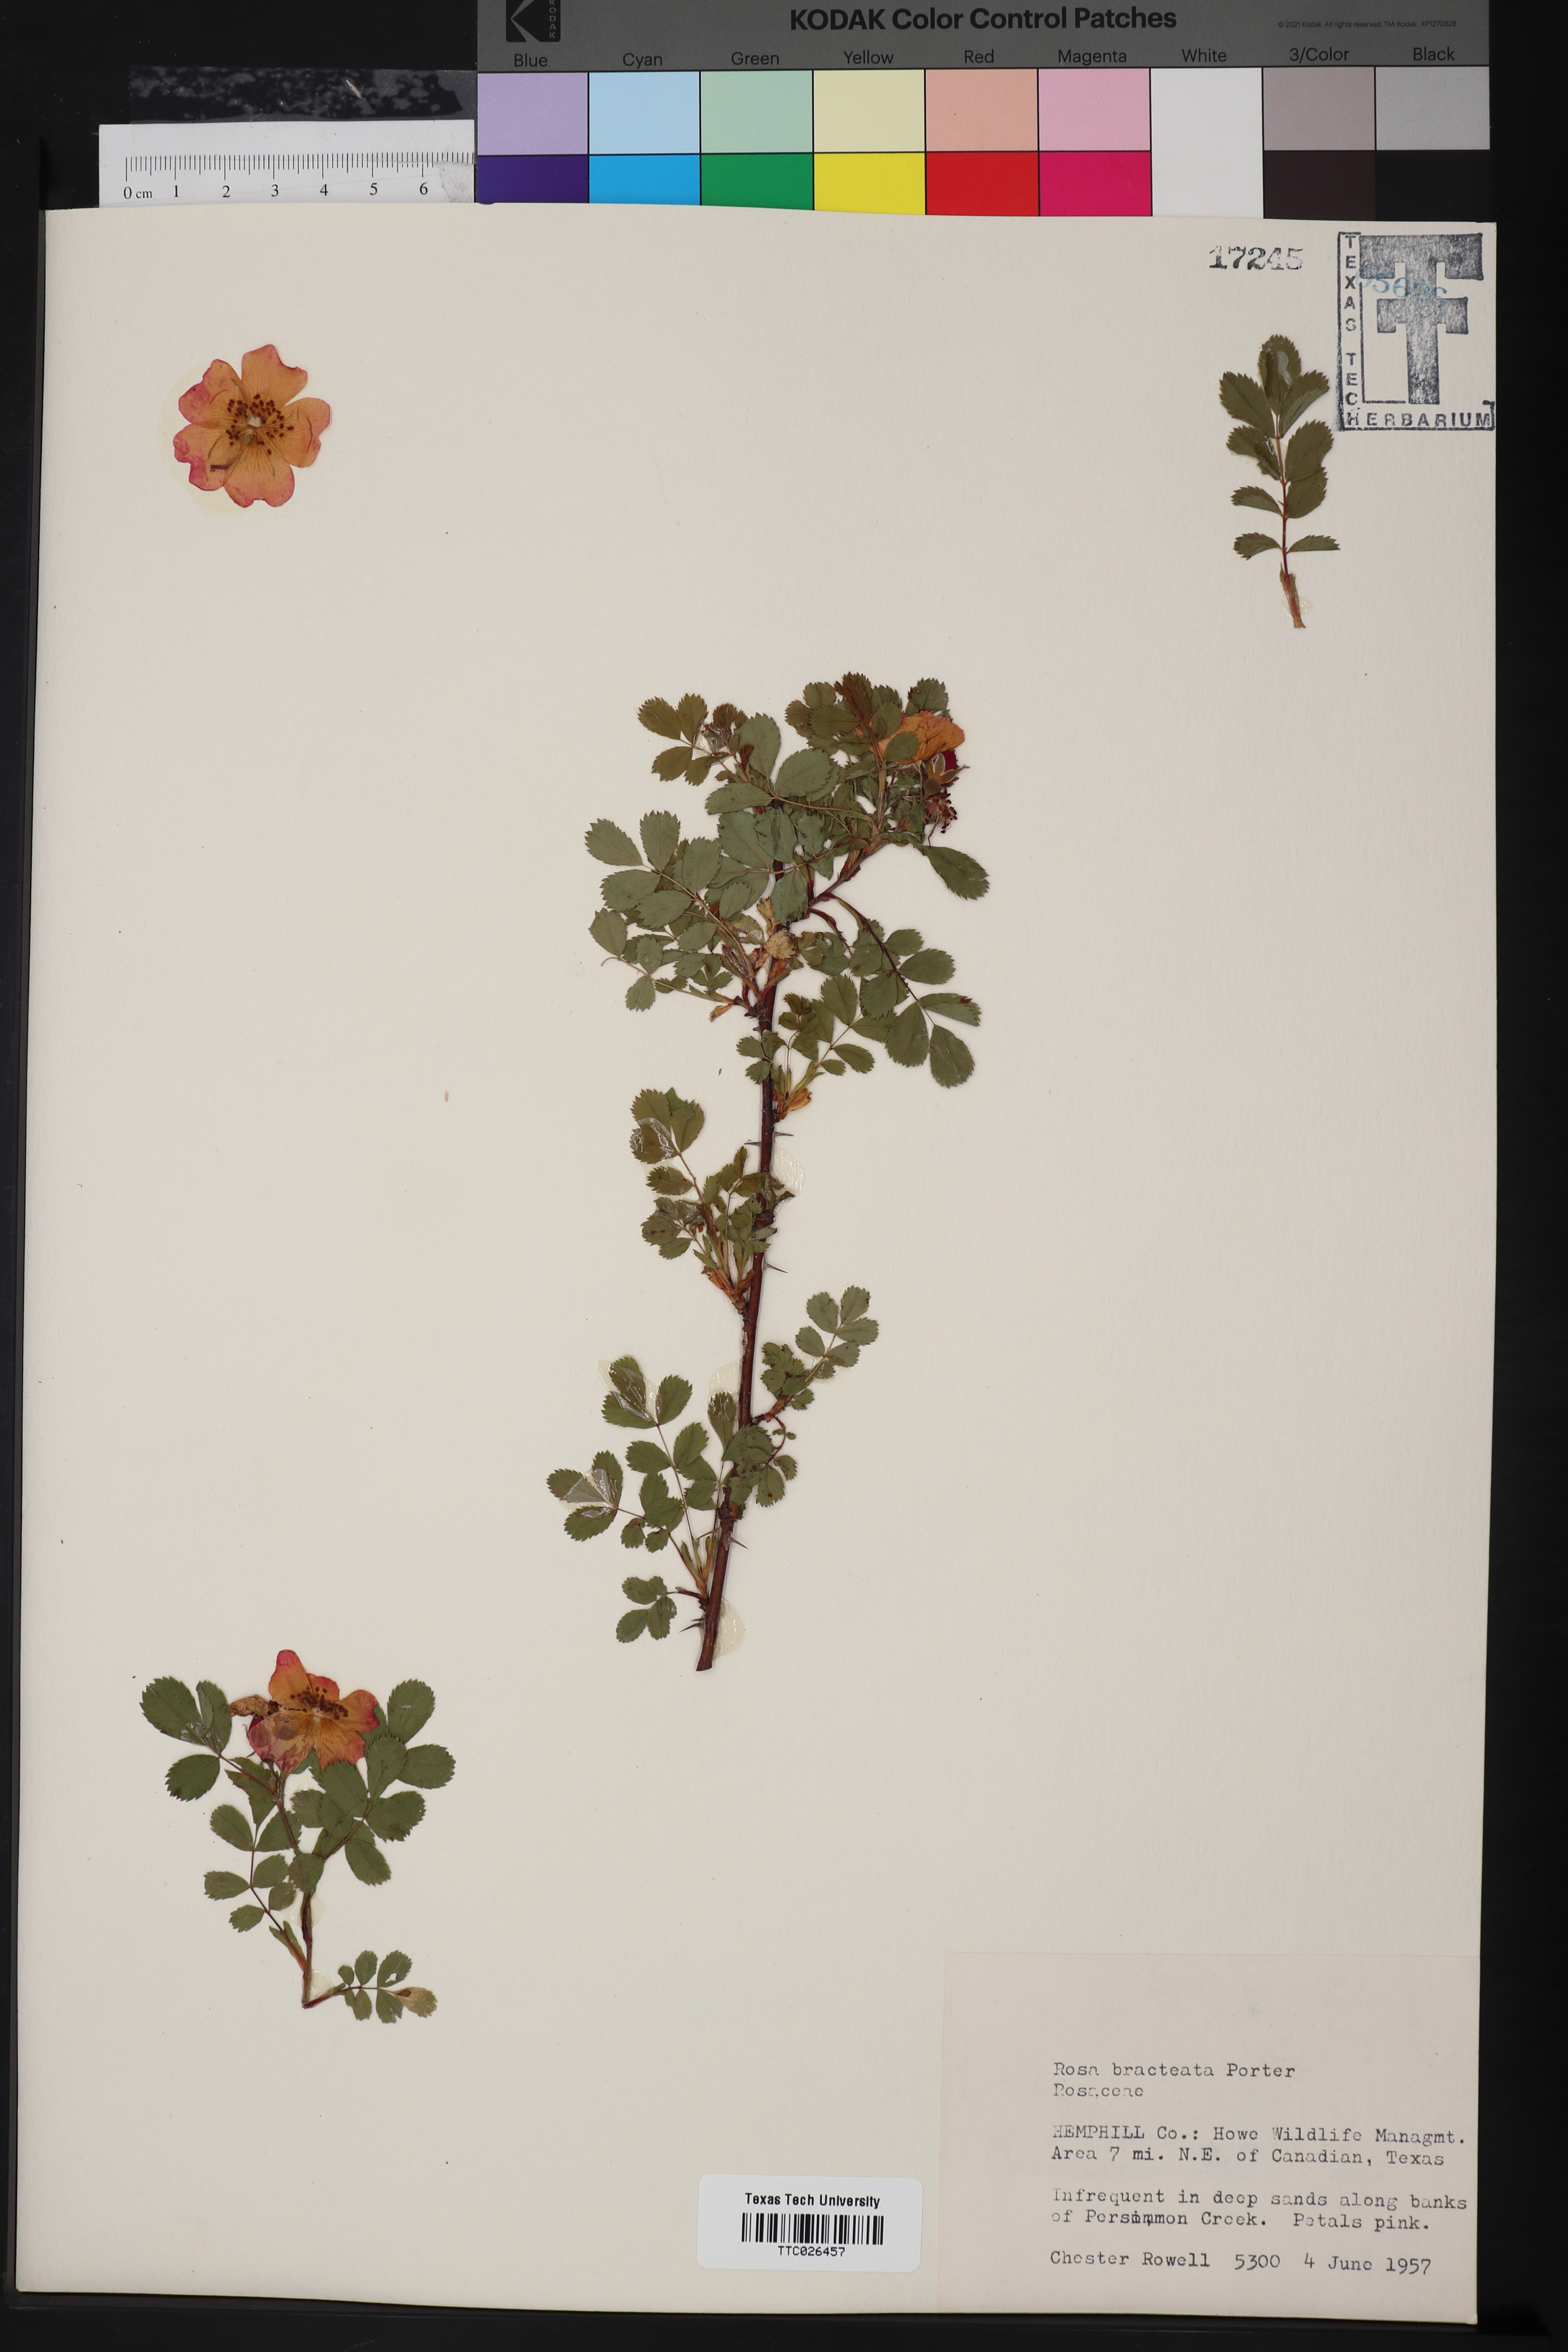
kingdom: Plantae
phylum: Tracheophyta
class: Magnoliopsida
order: Rosales
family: Rosaceae
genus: Rosa
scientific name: Rosa bracteata
